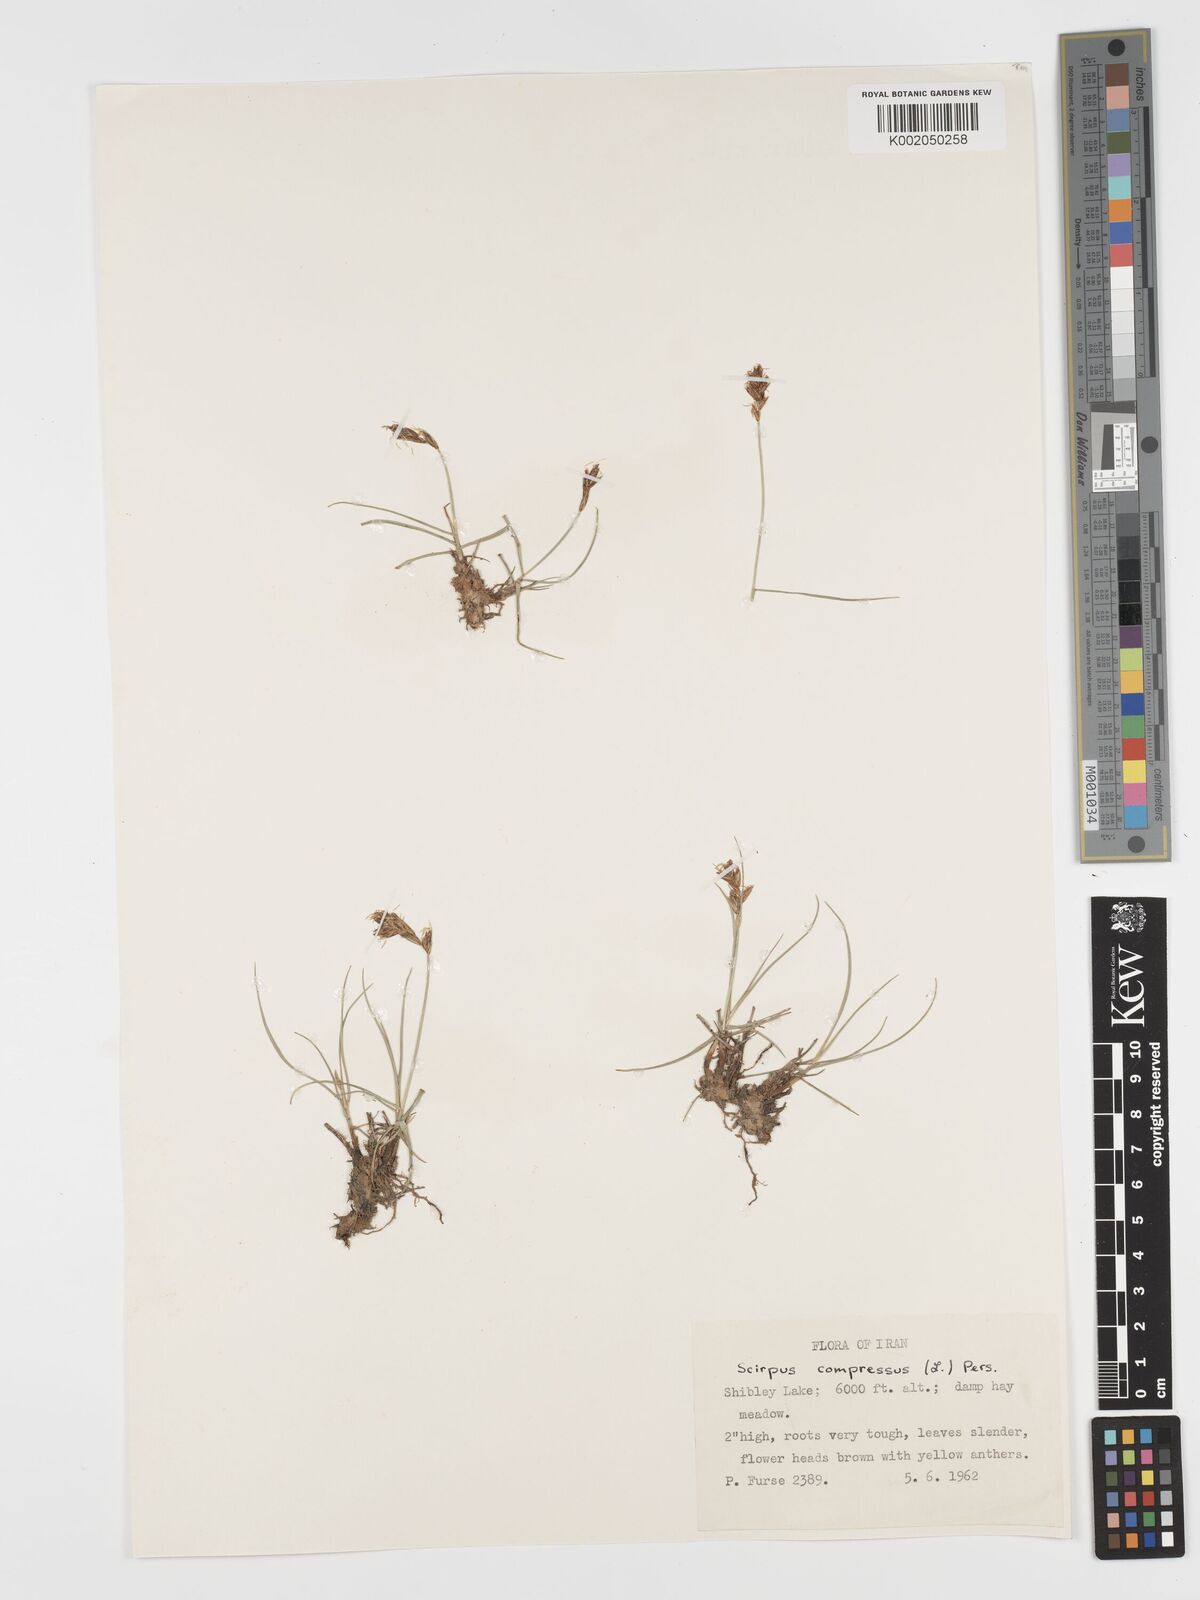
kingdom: Plantae
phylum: Tracheophyta
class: Liliopsida
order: Poales
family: Cyperaceae
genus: Blysmus
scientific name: Blysmus compressus
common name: Flat-sedge
